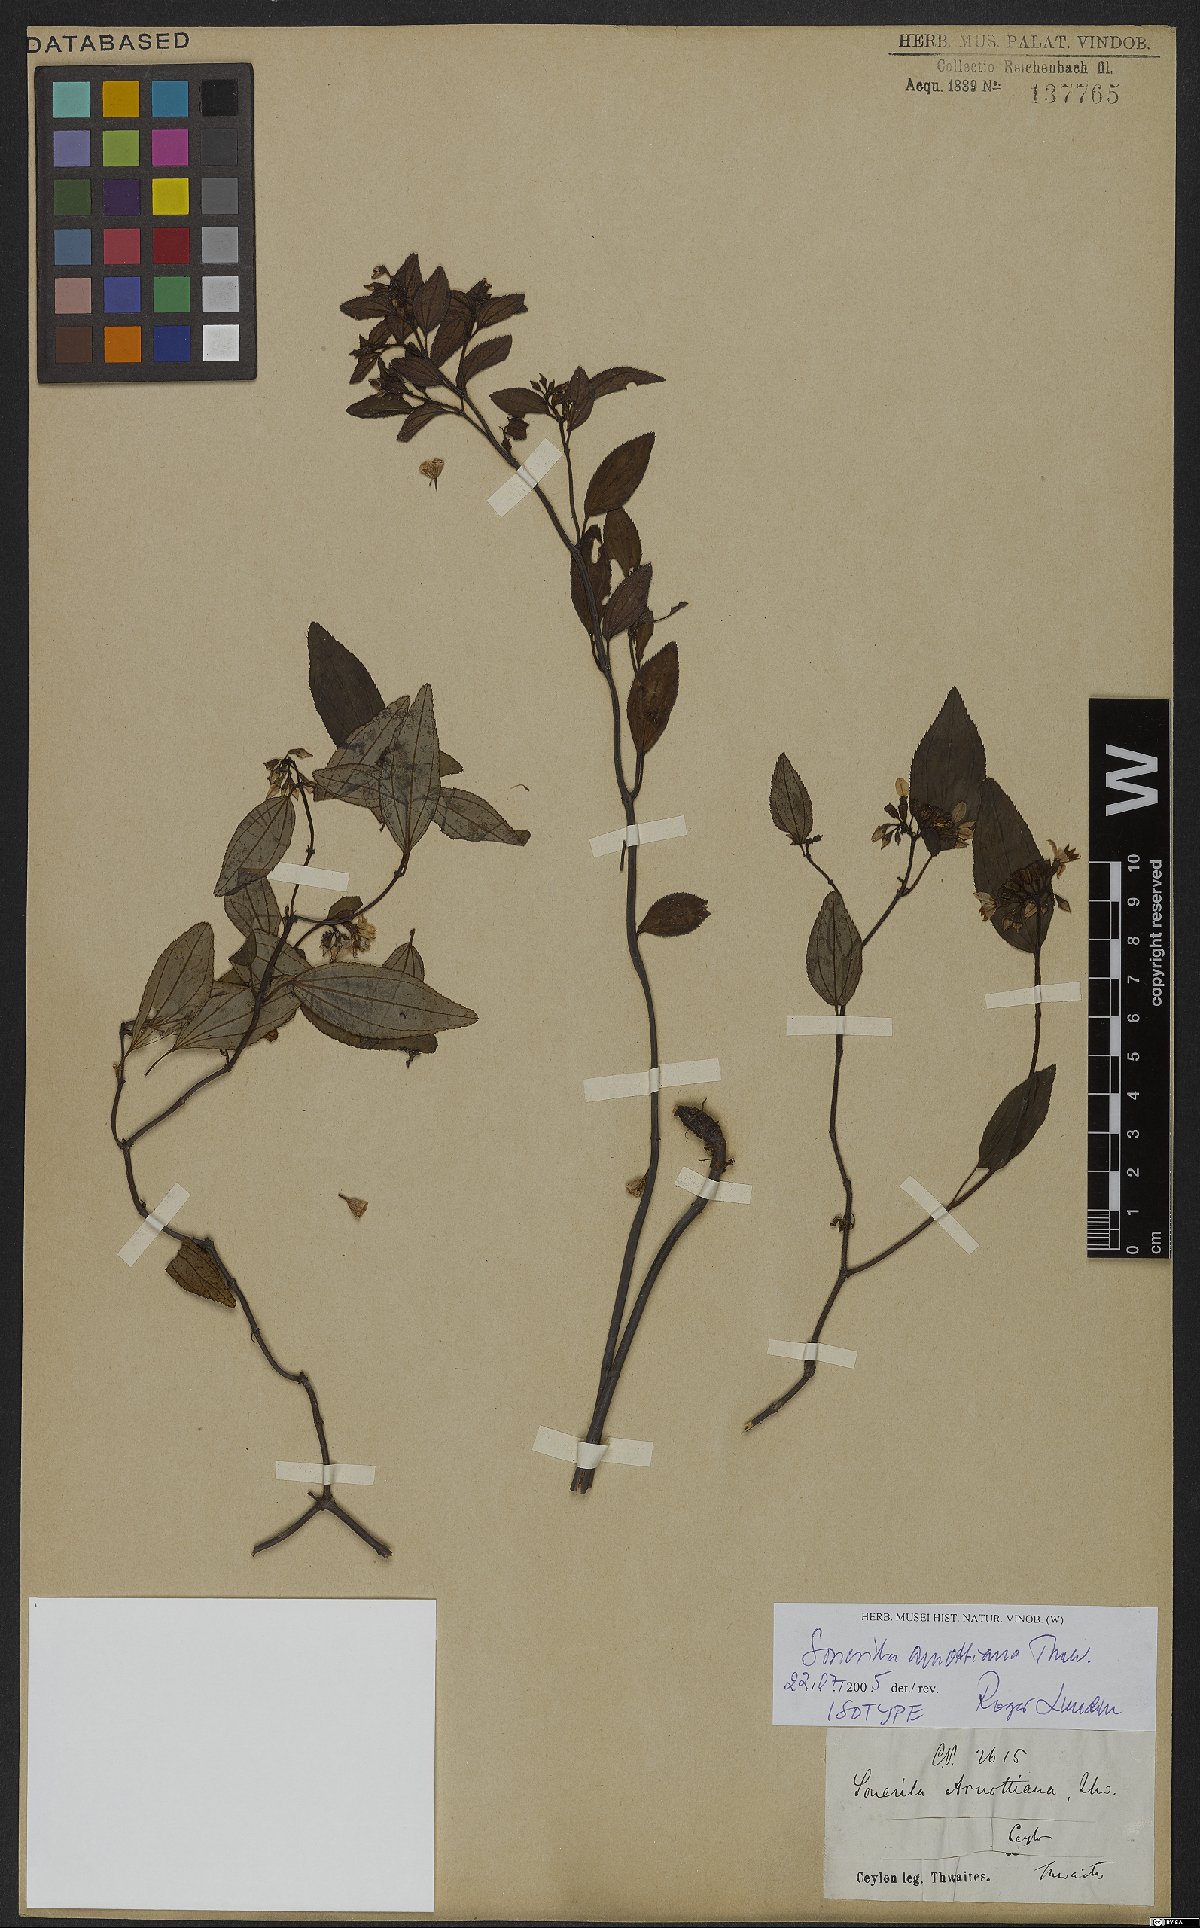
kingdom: Plantae
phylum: Tracheophyta
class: Magnoliopsida
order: Myrtales
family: Melastomataceae
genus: Sonerila
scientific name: Sonerila arnottiana
